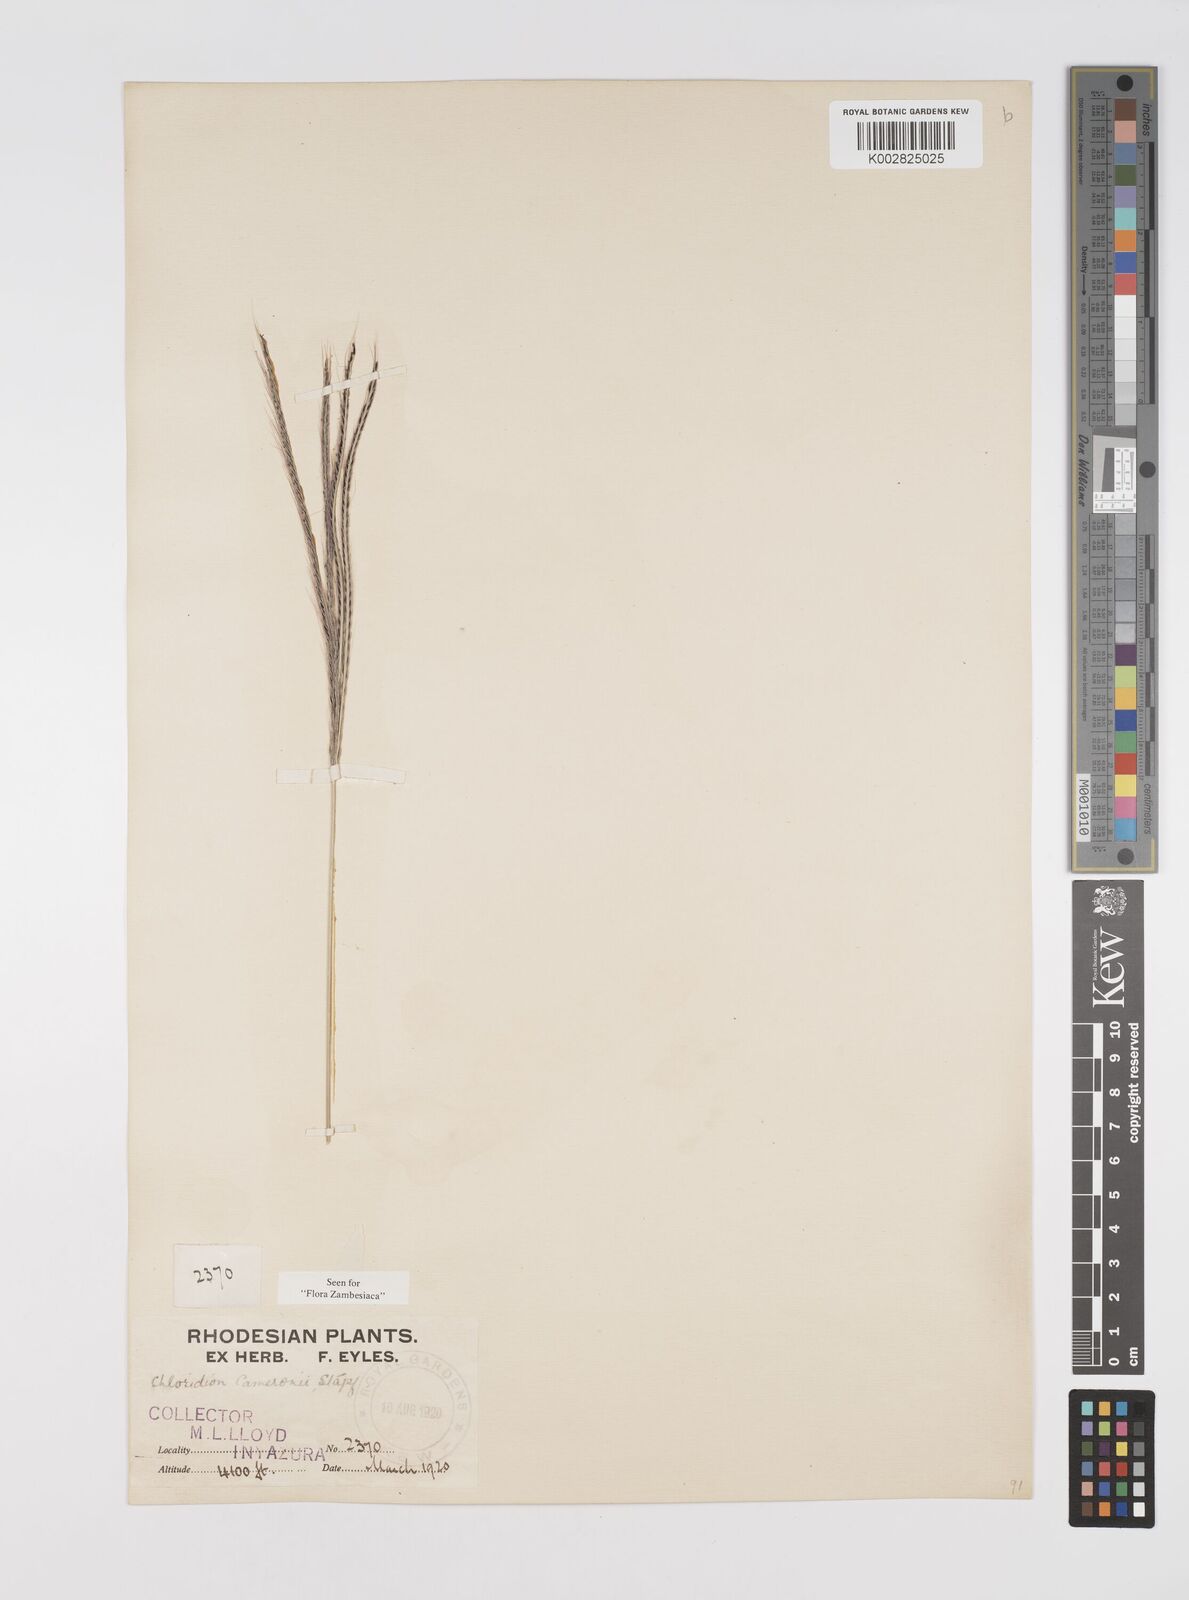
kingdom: Plantae
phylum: Tracheophyta
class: Liliopsida
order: Poales
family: Poaceae
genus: Stereochlaena
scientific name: Stereochlaena cameronii
